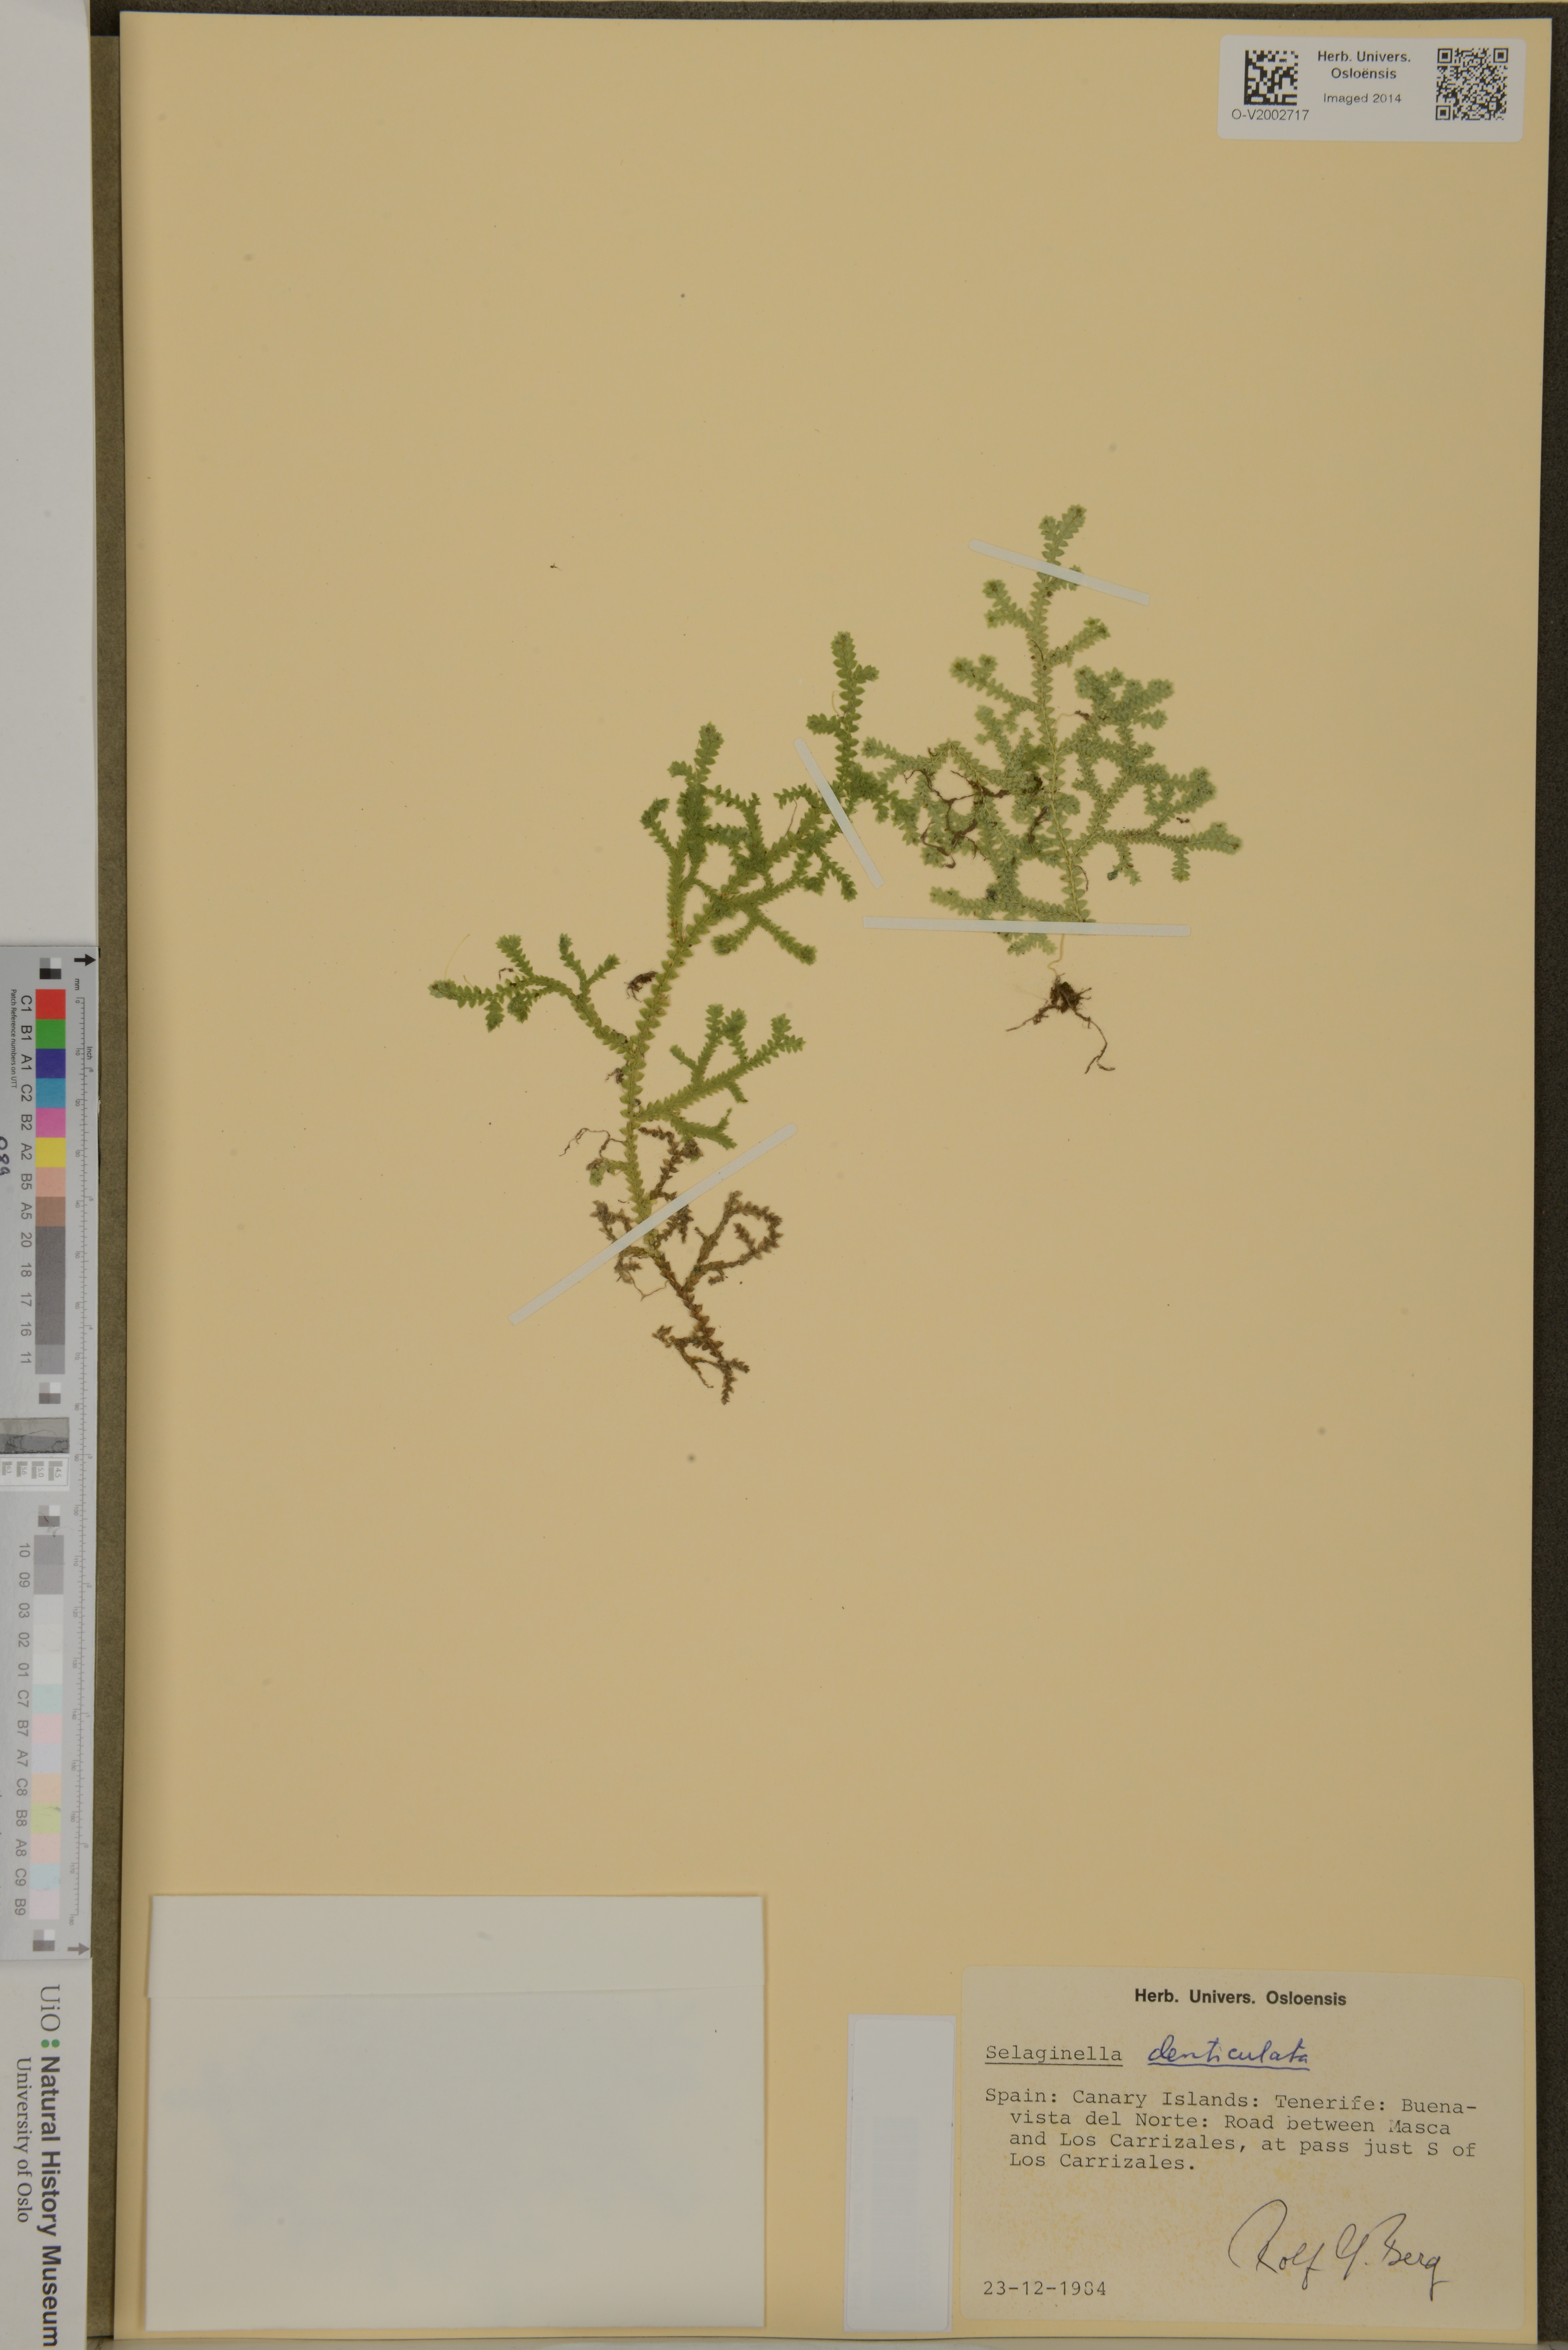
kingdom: Plantae
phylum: Tracheophyta
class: Lycopodiopsida
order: Selaginellales
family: Selaginellaceae
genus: Selaginella
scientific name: Selaginella denticulata
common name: Toothed-leaved clubmoss
